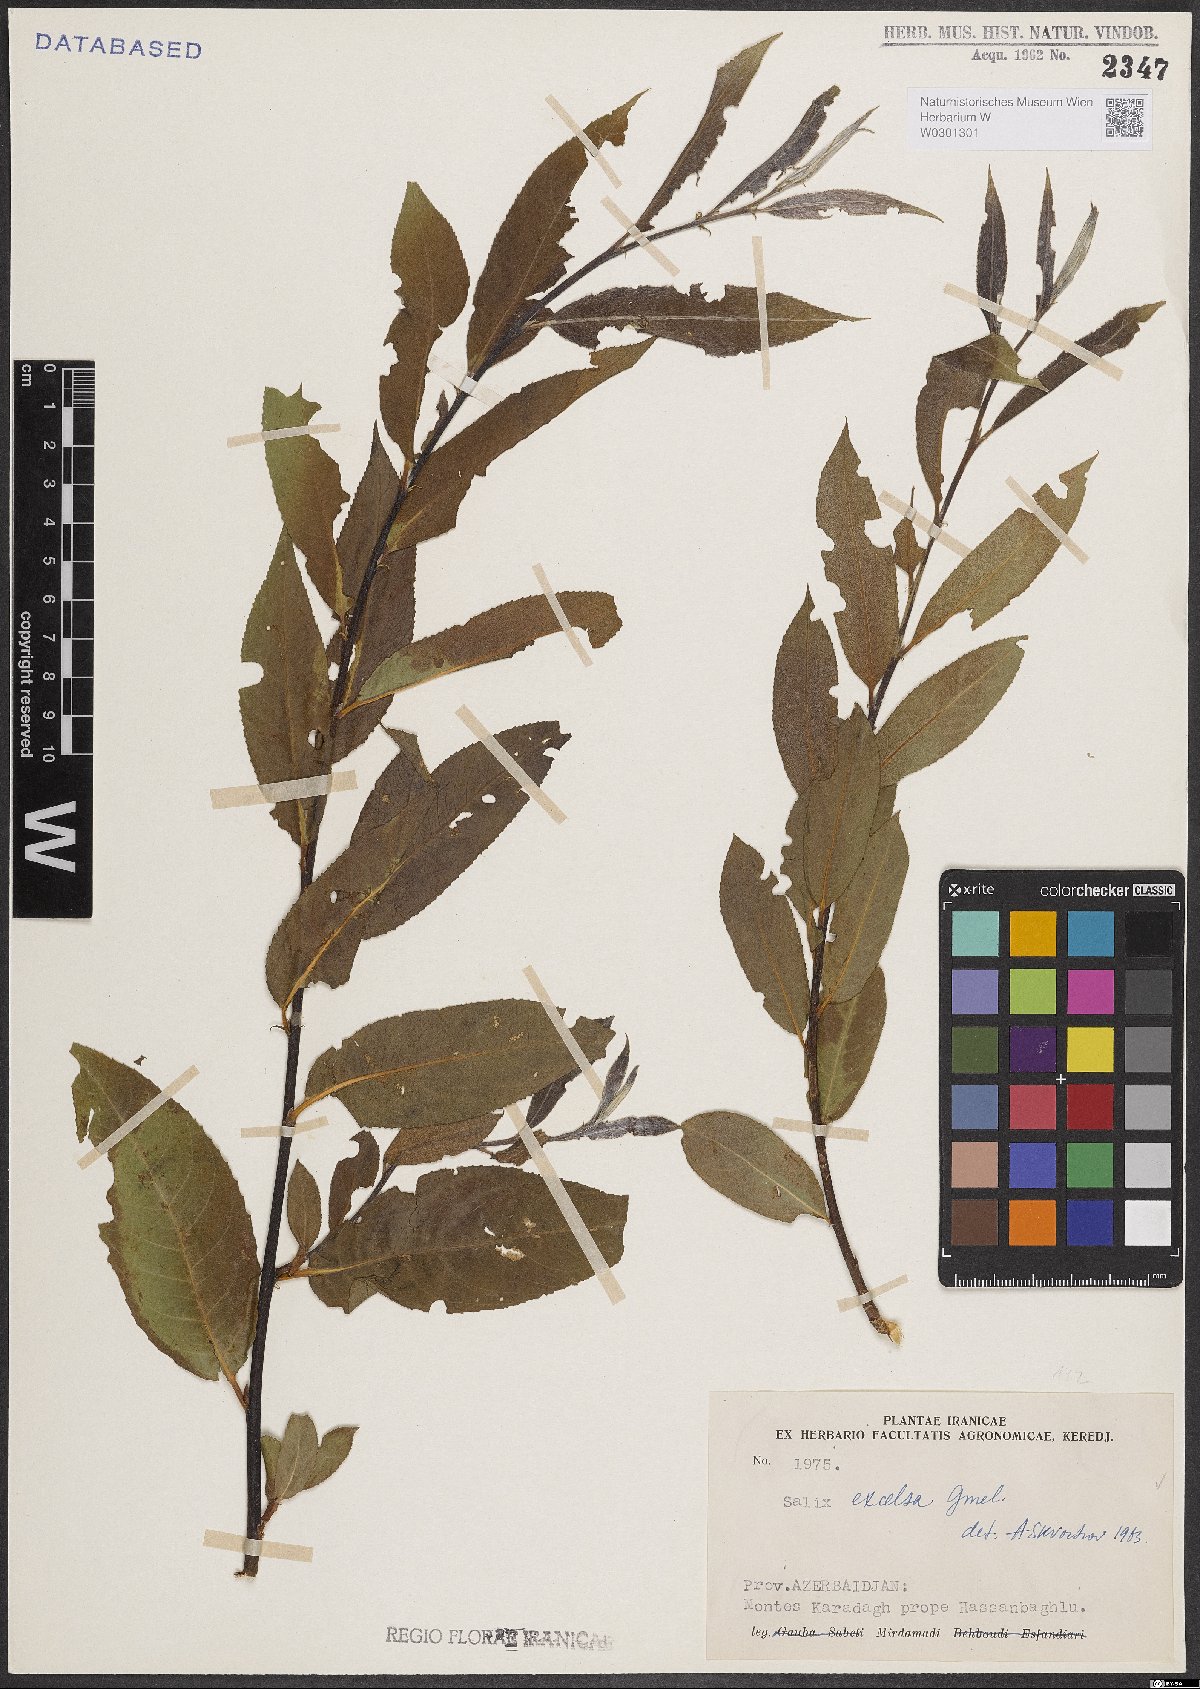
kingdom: Plantae
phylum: Tracheophyta
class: Magnoliopsida
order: Malpighiales
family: Salicaceae
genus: Salix
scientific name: Salix excelsa
